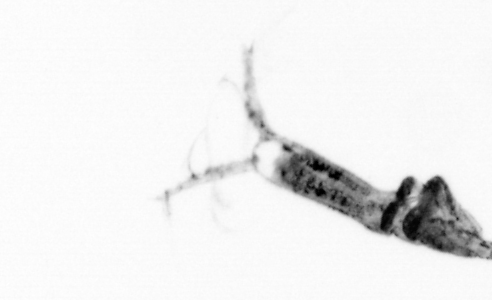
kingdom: Animalia
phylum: Arthropoda
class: Copepoda
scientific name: Copepoda
